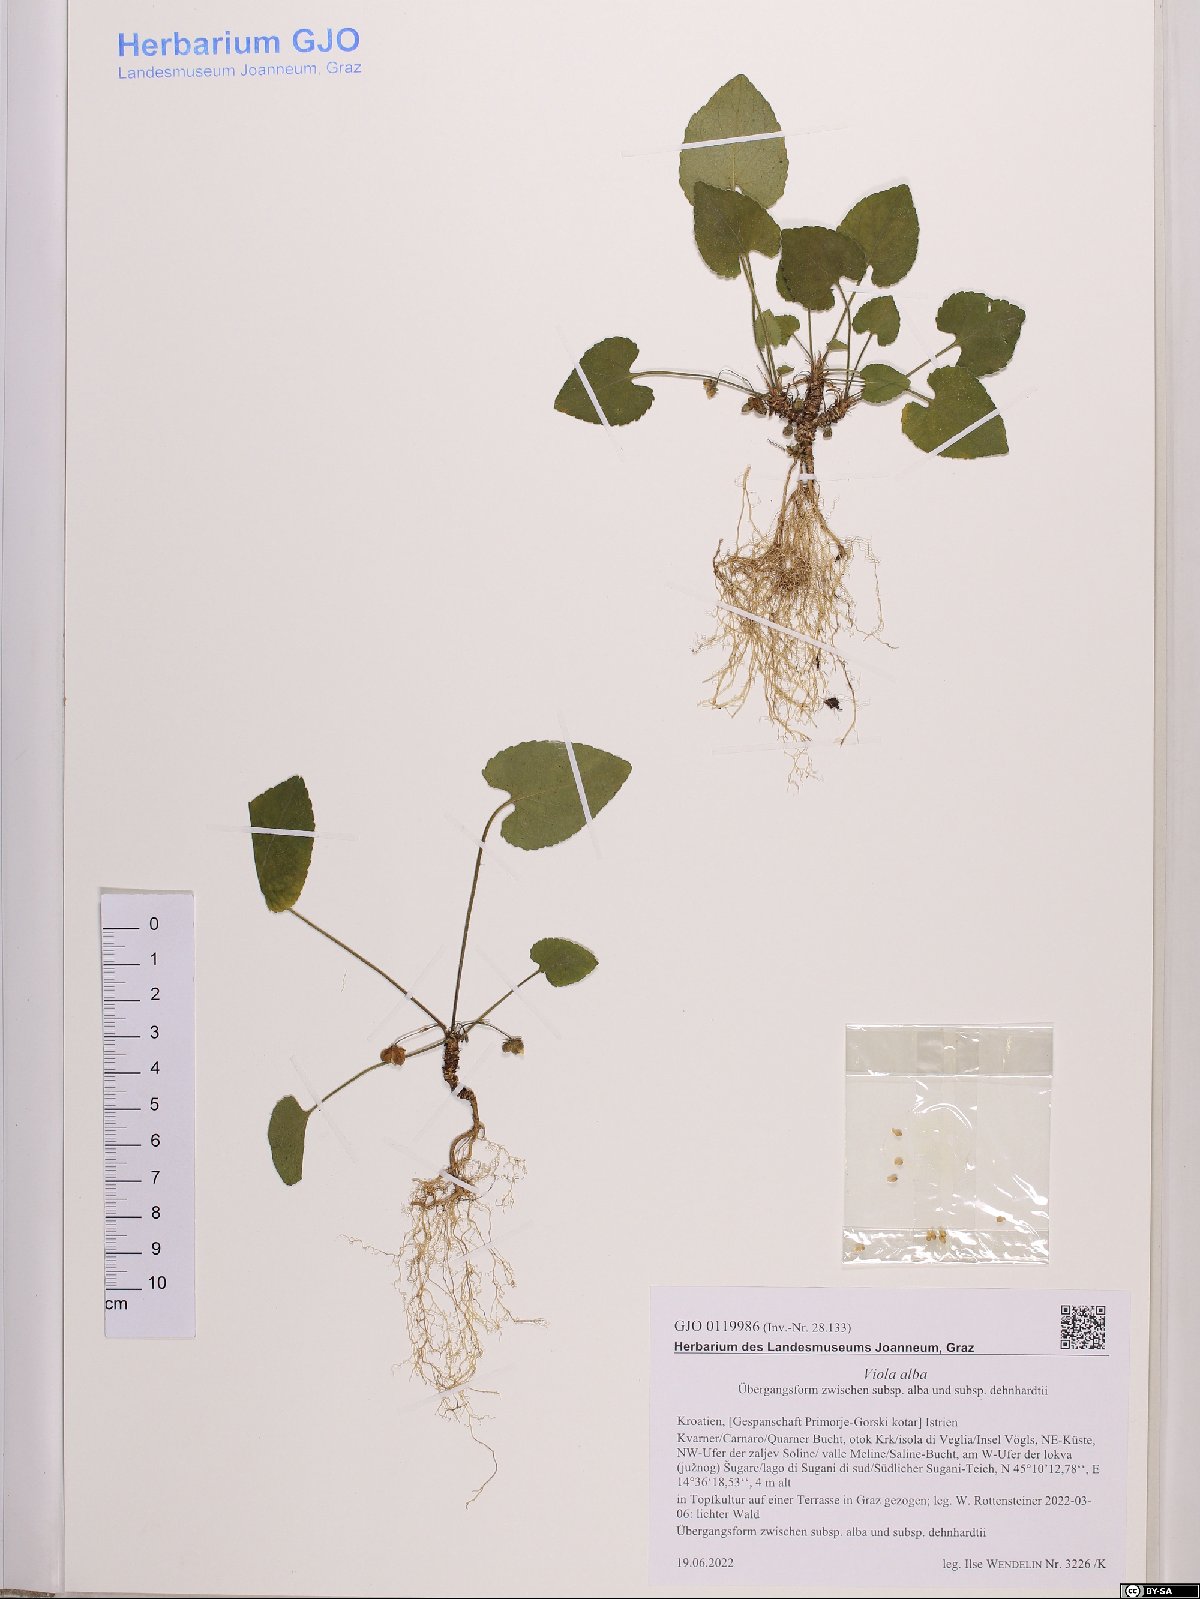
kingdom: Plantae
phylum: Tracheophyta
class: Magnoliopsida
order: Malpighiales
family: Violaceae
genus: Viola
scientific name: Viola alba
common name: White violet
